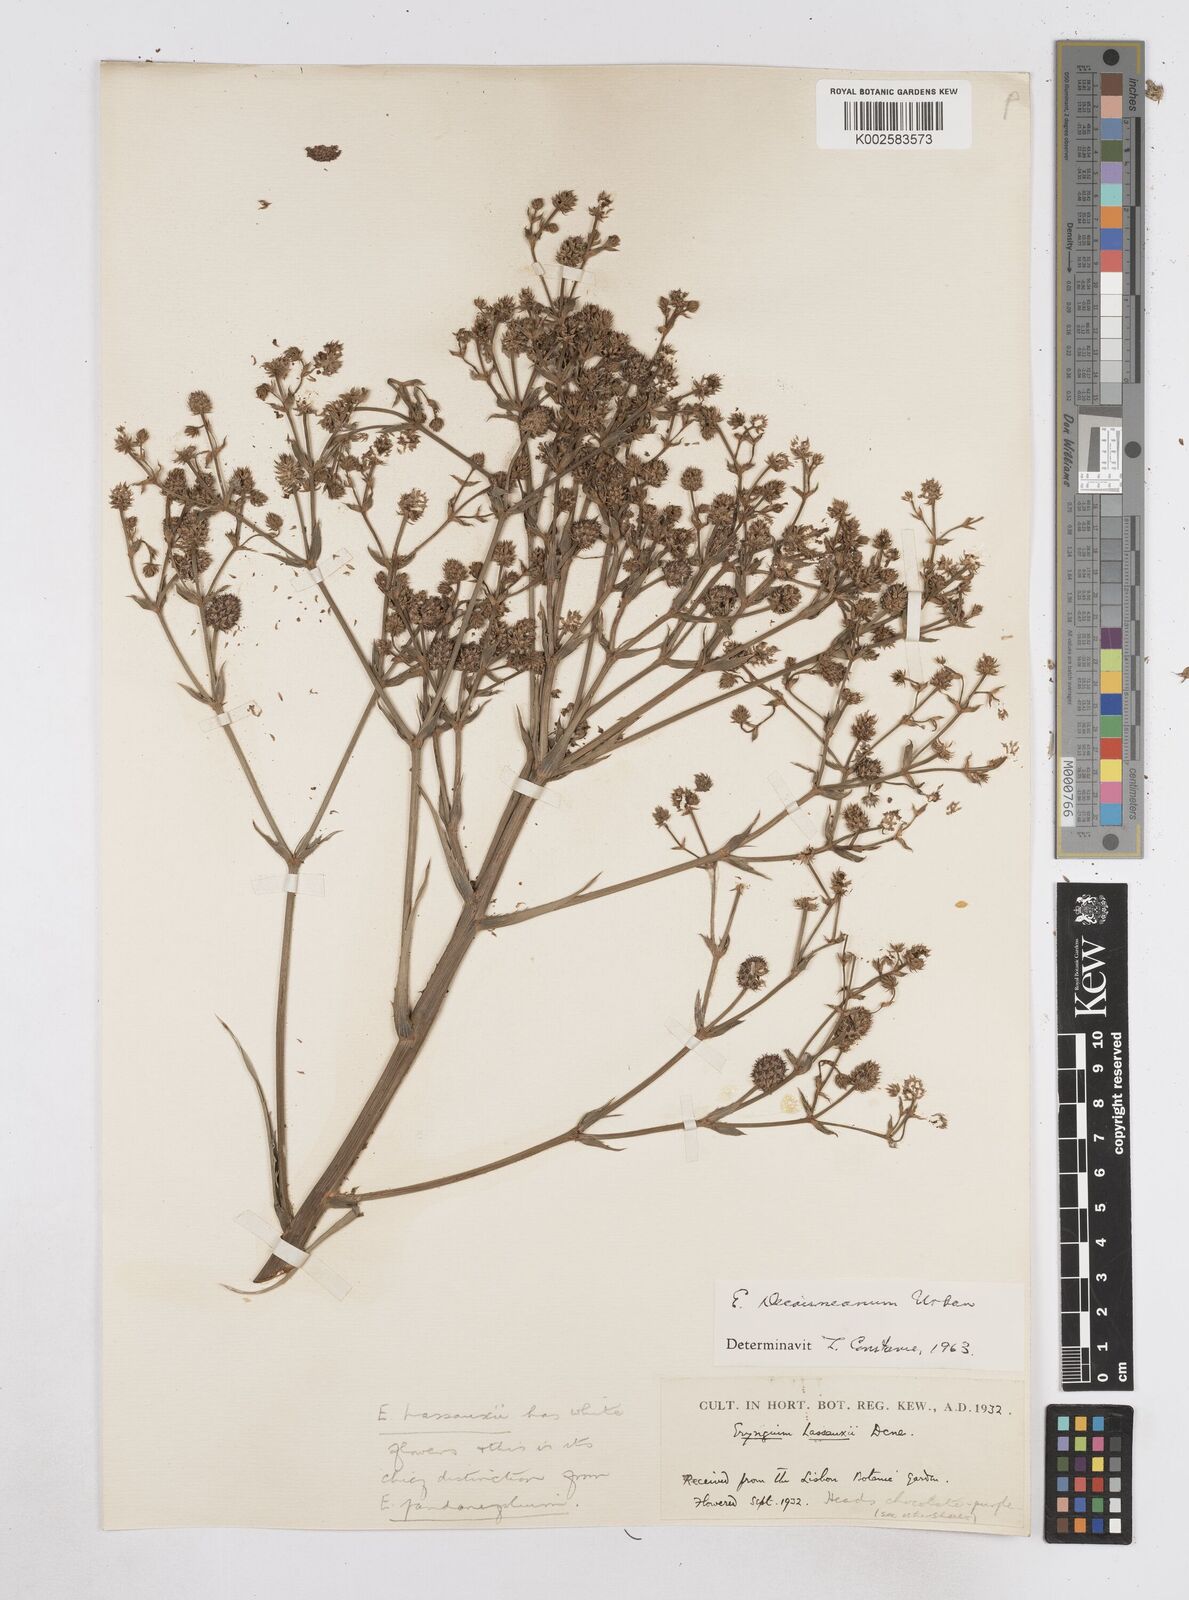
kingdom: Plantae
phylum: Tracheophyta
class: Magnoliopsida
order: Apiales
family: Apiaceae
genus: Eryngium
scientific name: Eryngium pandanifolium
